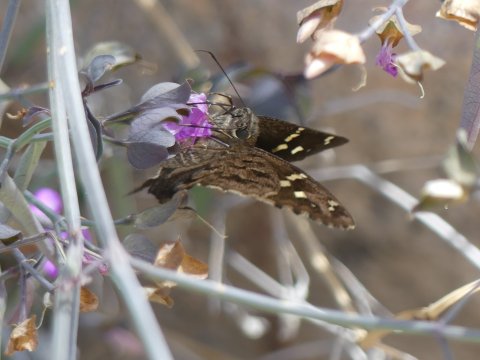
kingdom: Animalia
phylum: Arthropoda
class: Insecta
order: Lepidoptera
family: Hesperiidae
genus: Urbanus
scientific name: Urbanus dorantes
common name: Dorantes Longtail
